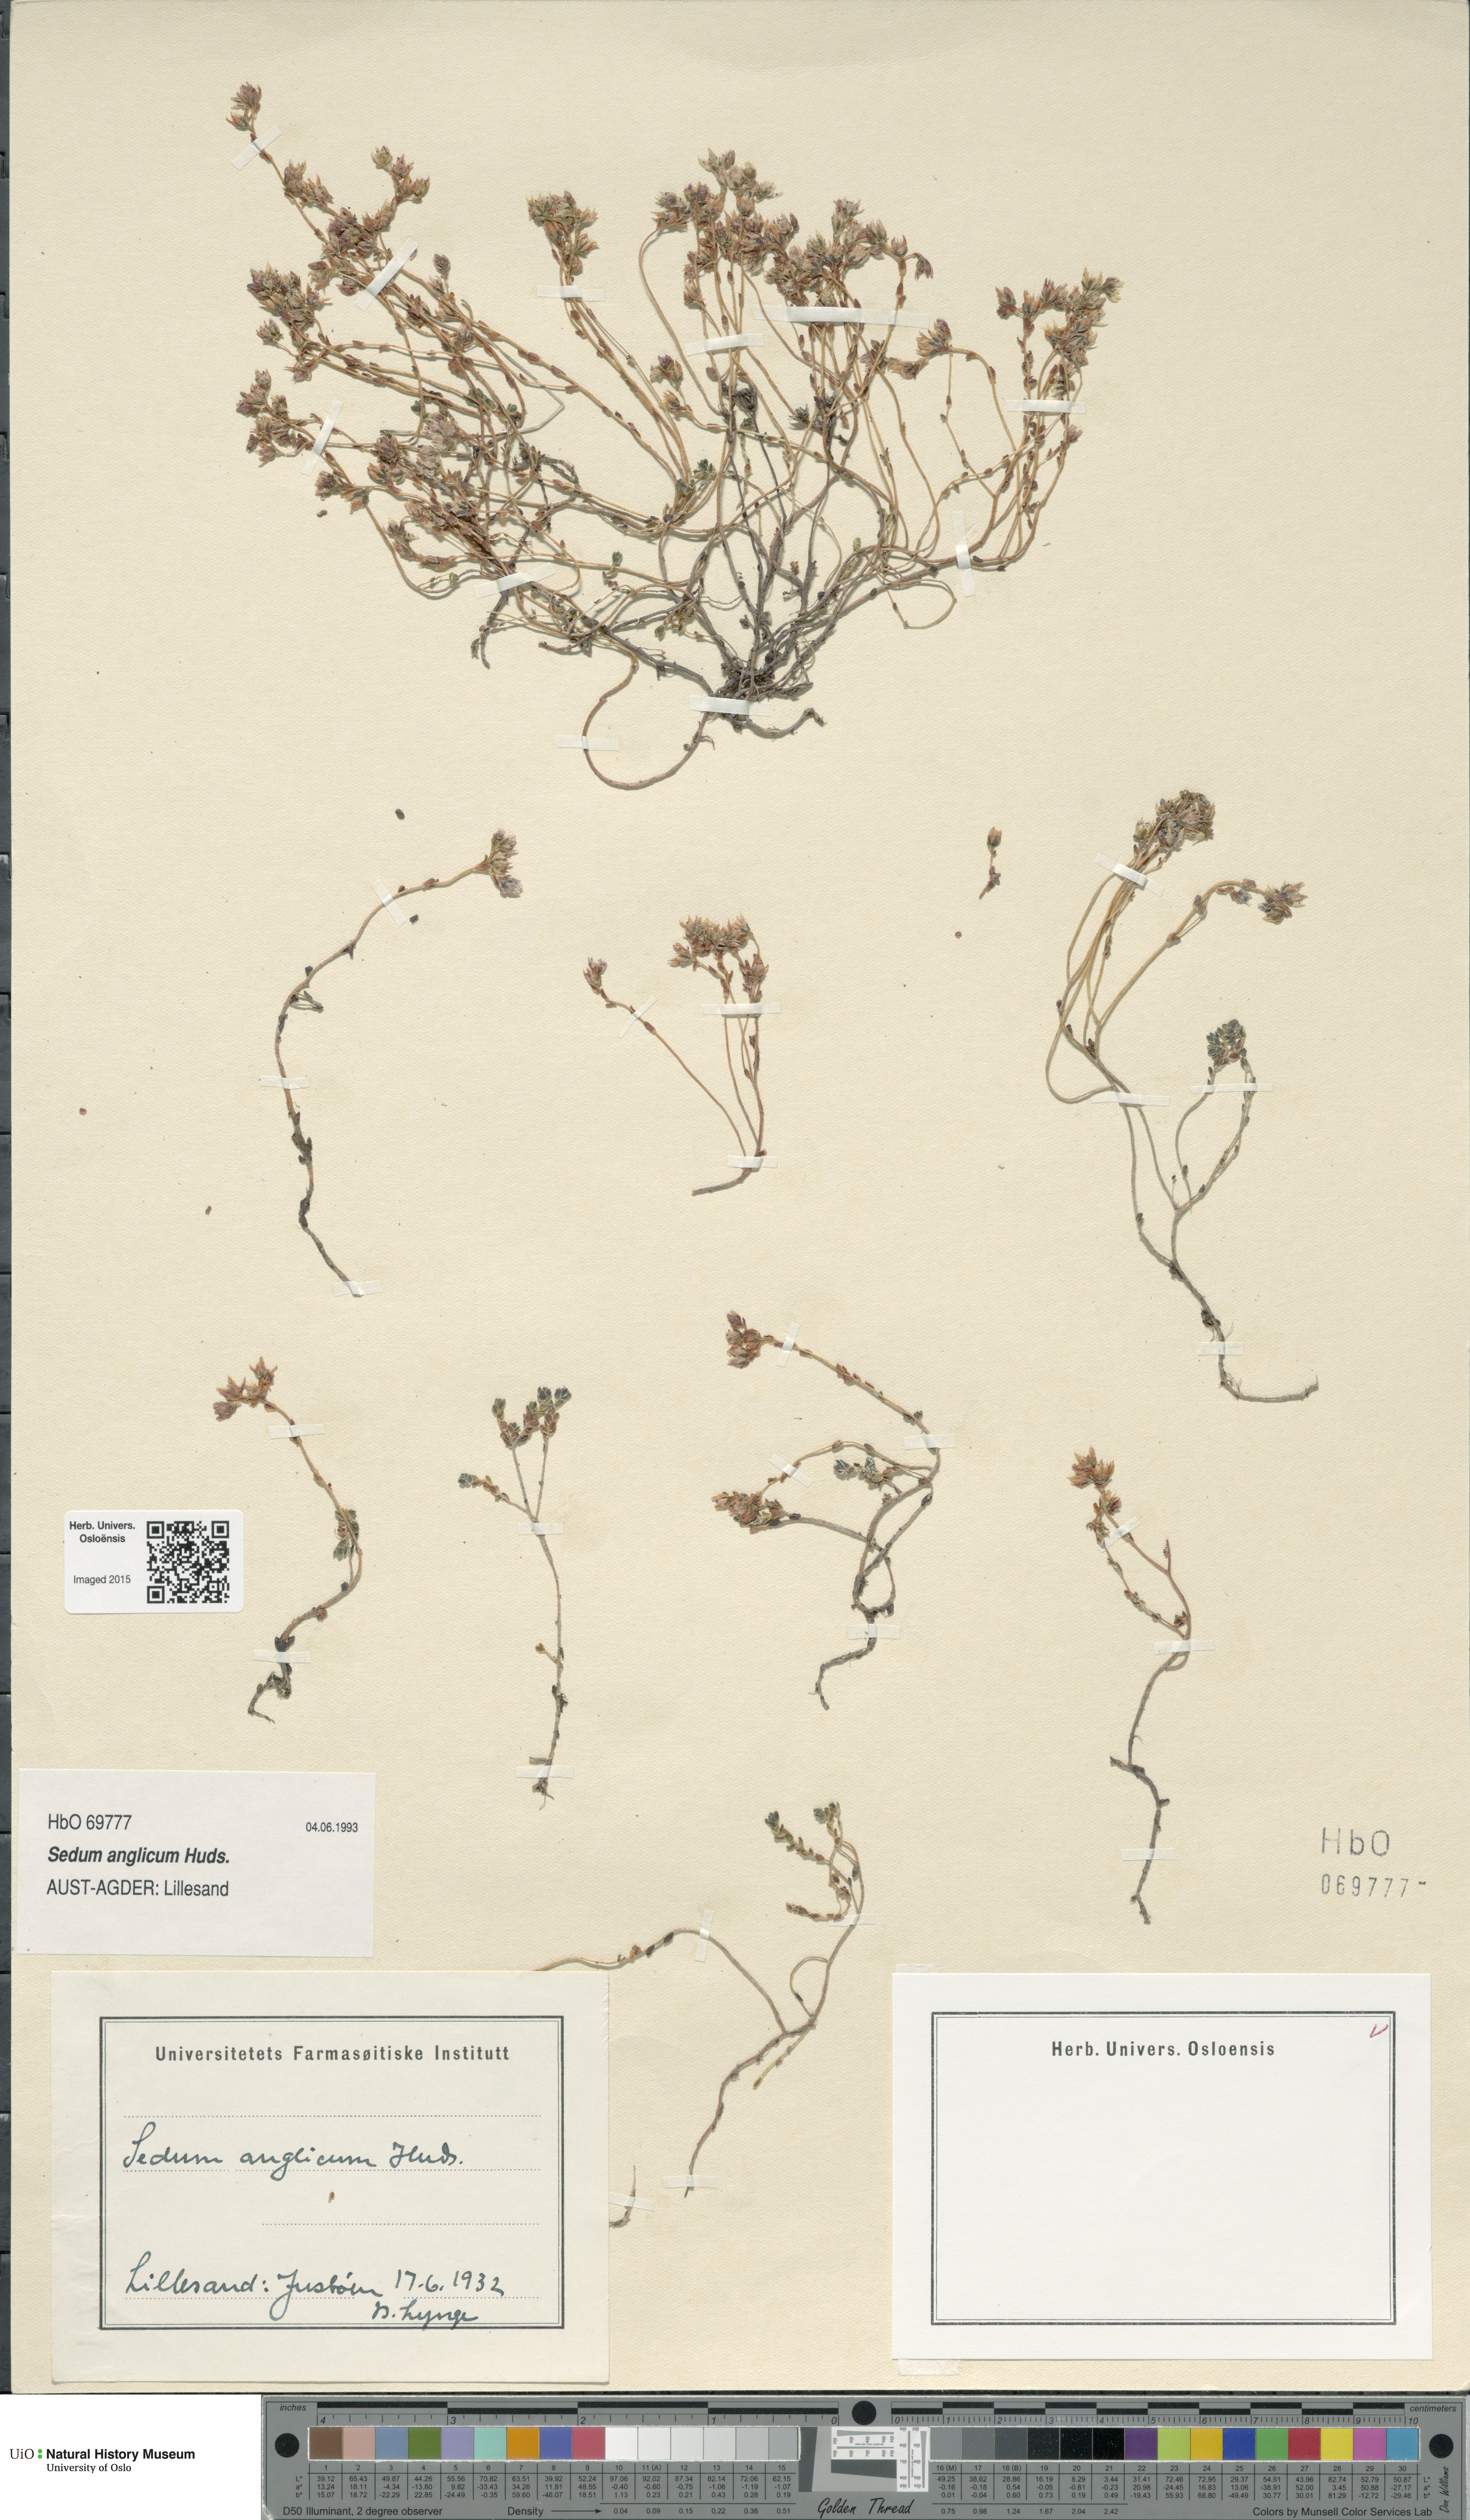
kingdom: Plantae
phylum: Tracheophyta
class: Magnoliopsida
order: Saxifragales
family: Crassulaceae
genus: Sedum
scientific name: Sedum anglicum
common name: English stonecrop
